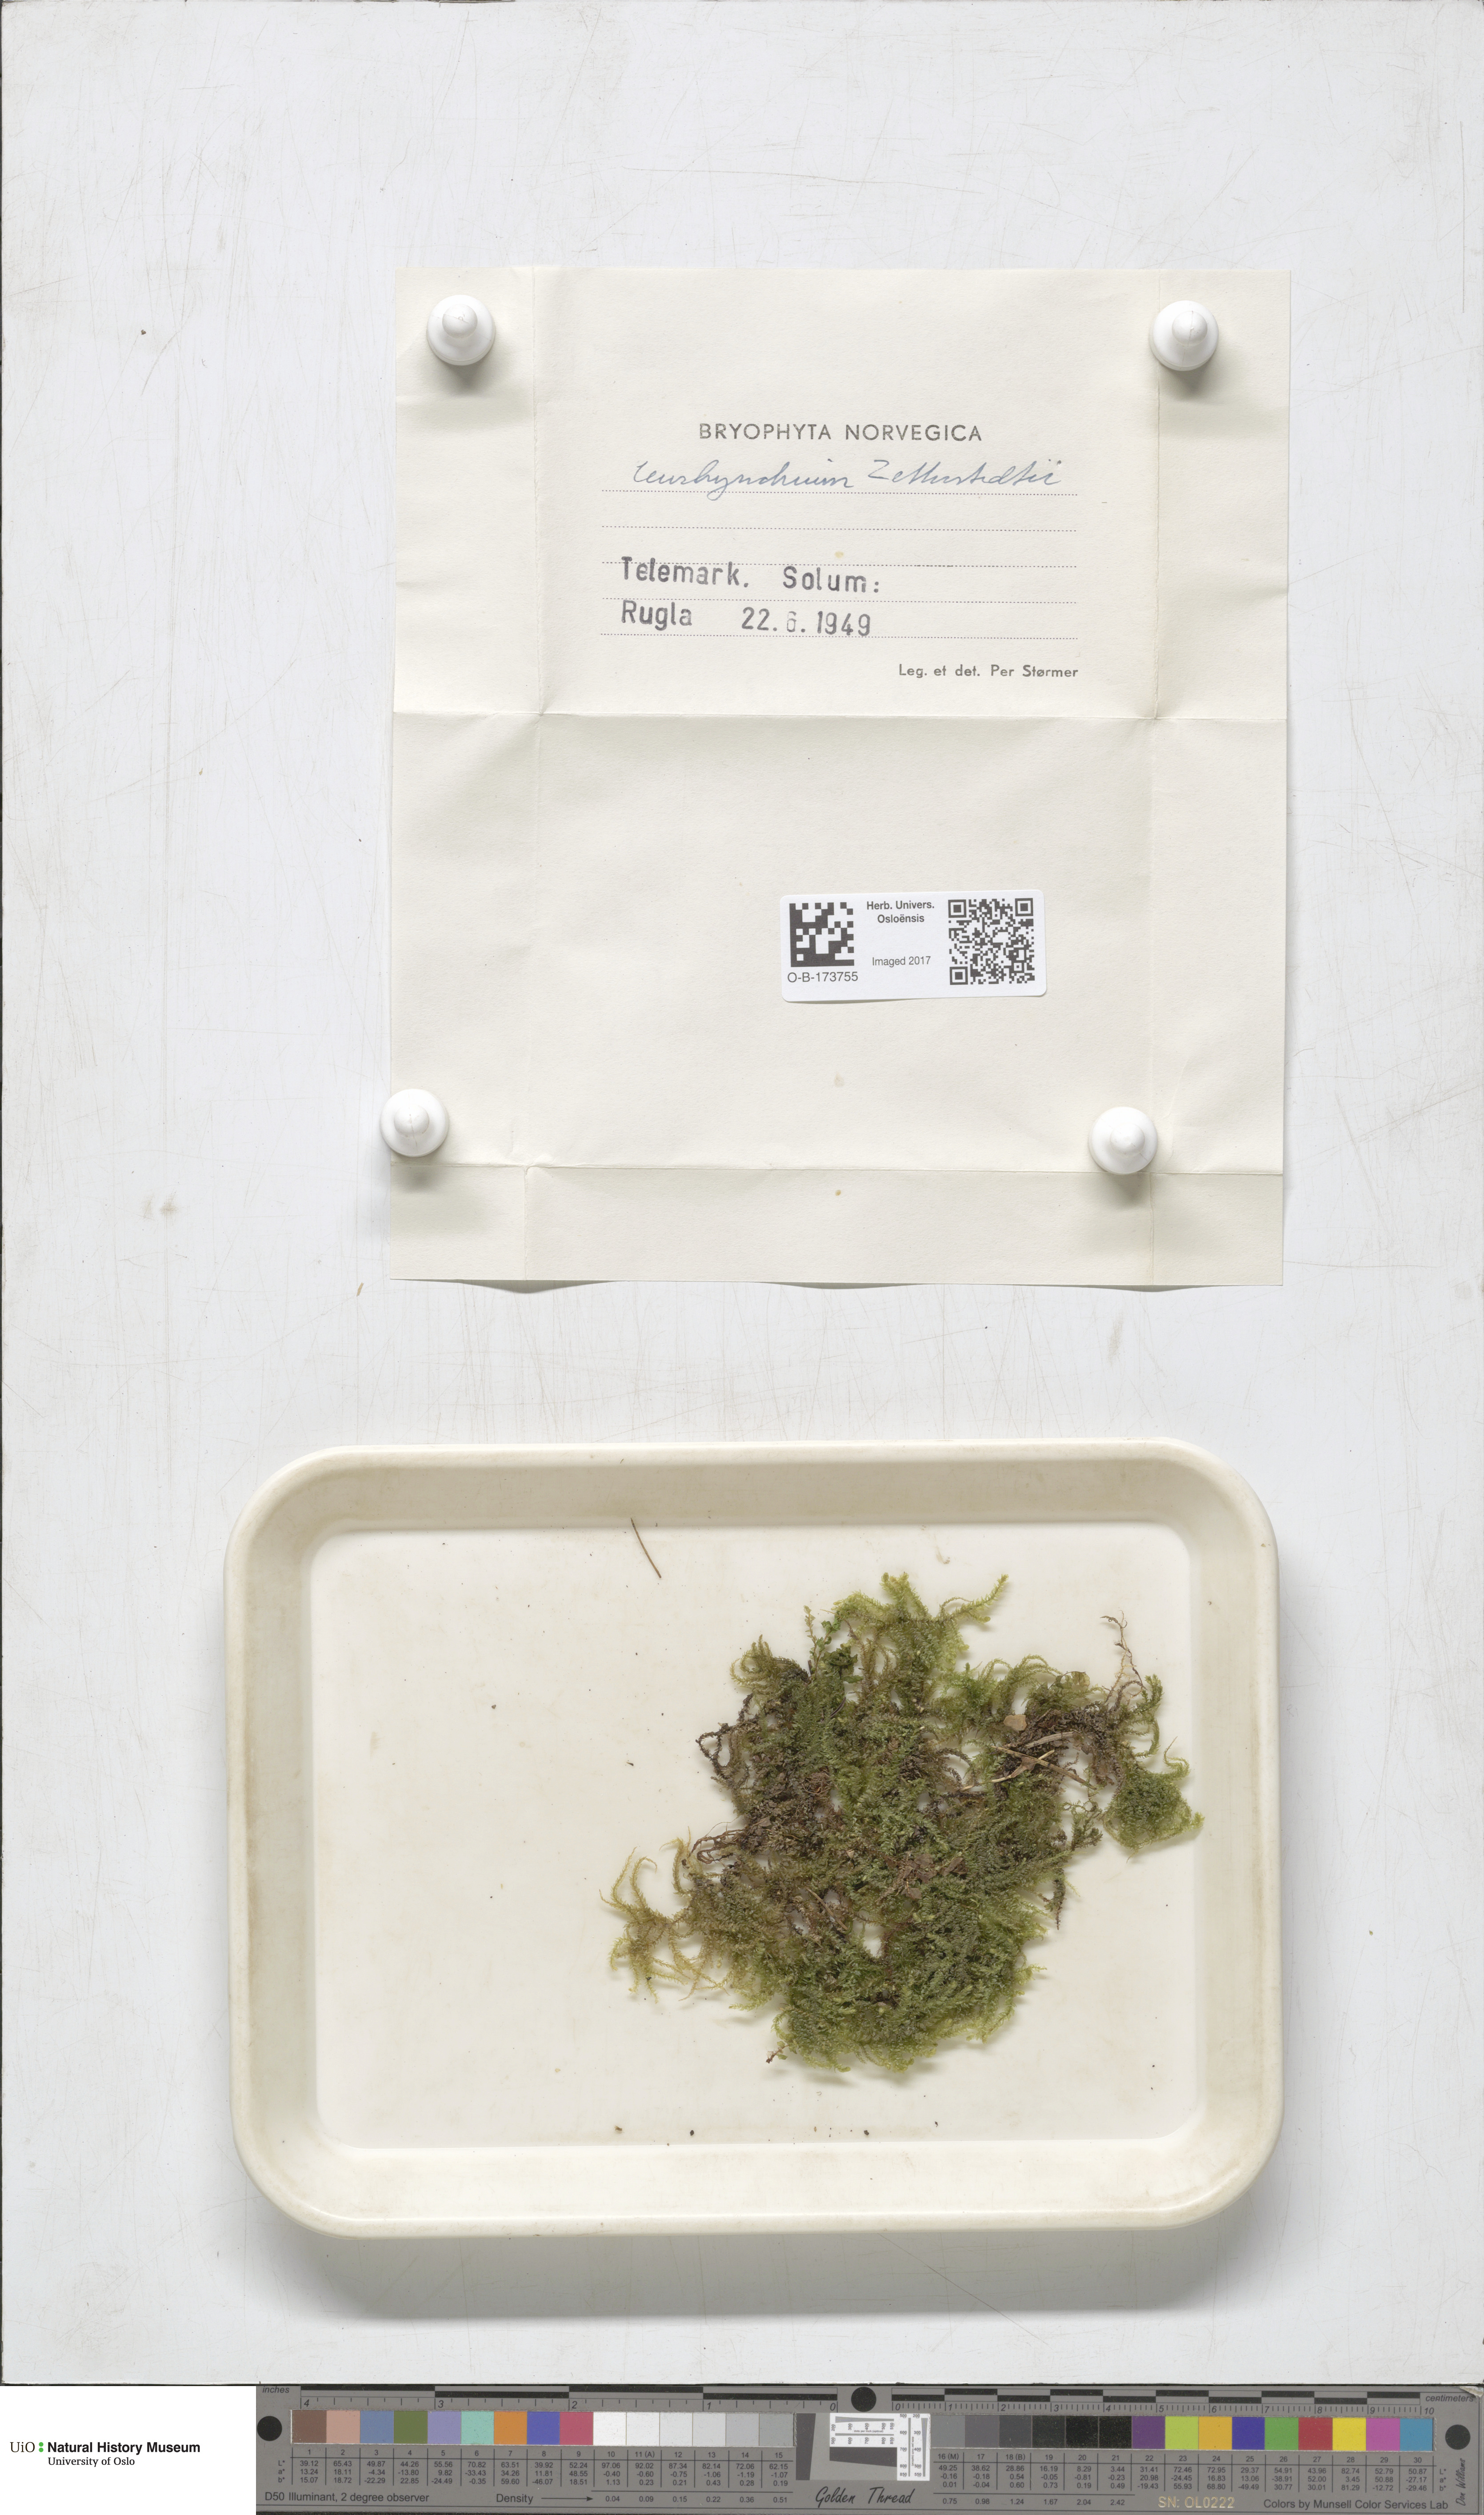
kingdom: Plantae
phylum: Bryophyta
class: Bryopsida
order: Hypnales
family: Brachytheciaceae
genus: Eurhynchium
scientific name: Eurhynchium angustirete
